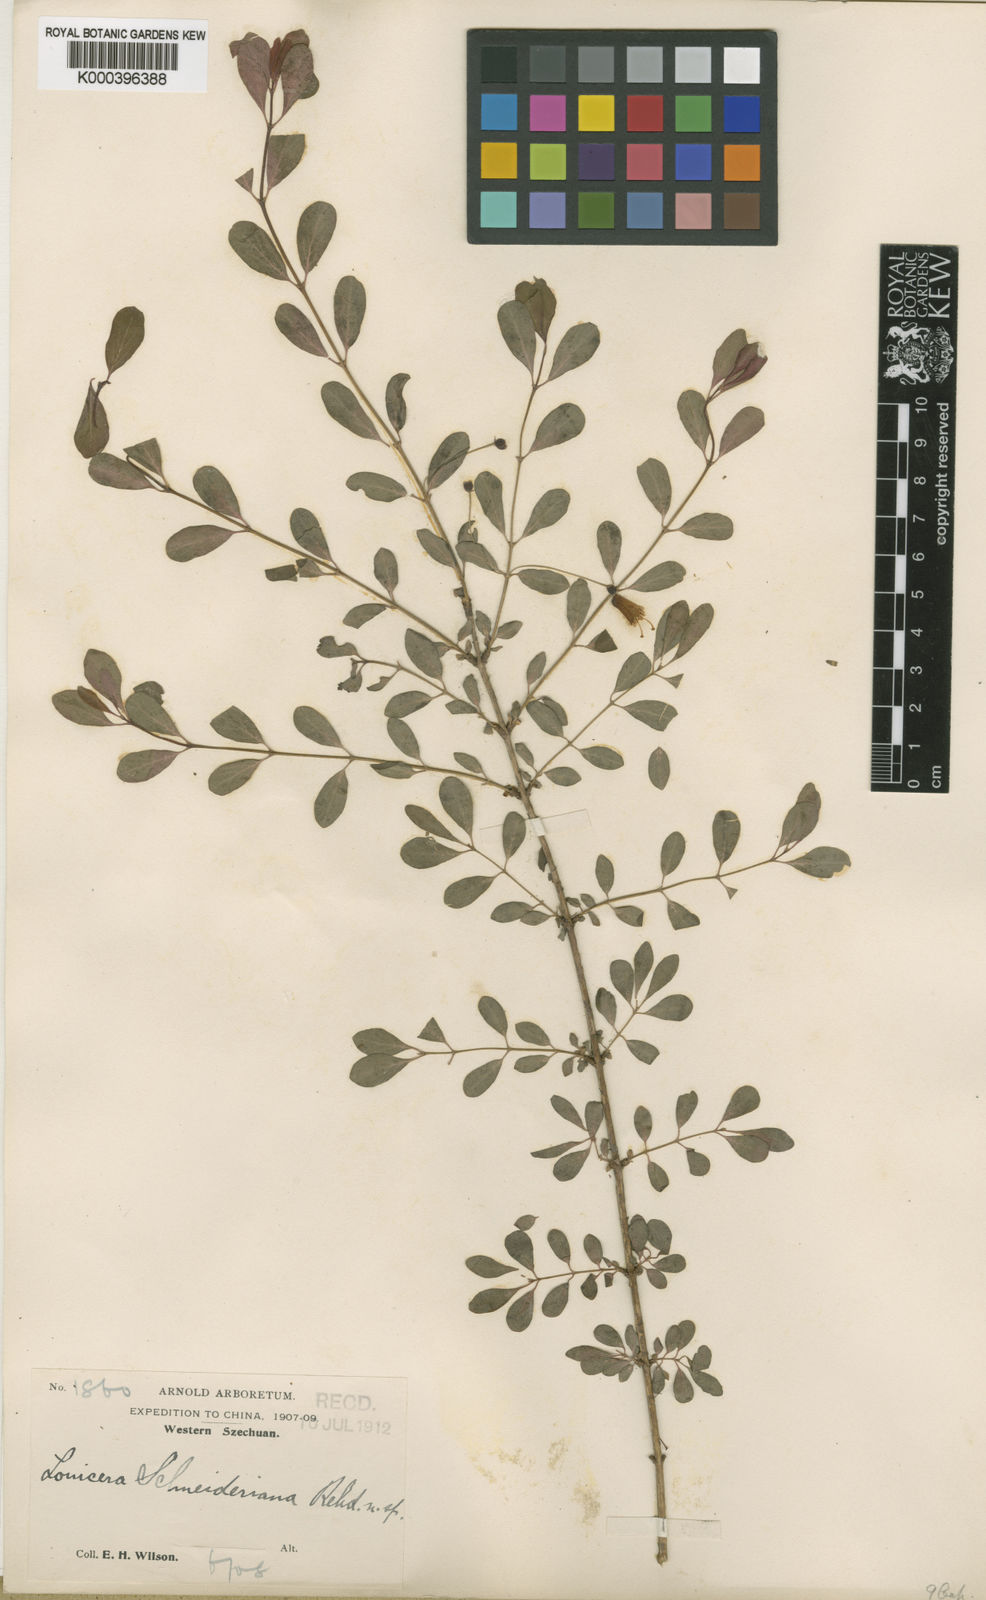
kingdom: Plantae
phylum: Tracheophyta
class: Magnoliopsida
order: Dipsacales
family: Caprifoliaceae
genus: Lonicera
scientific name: Lonicera tangutica
